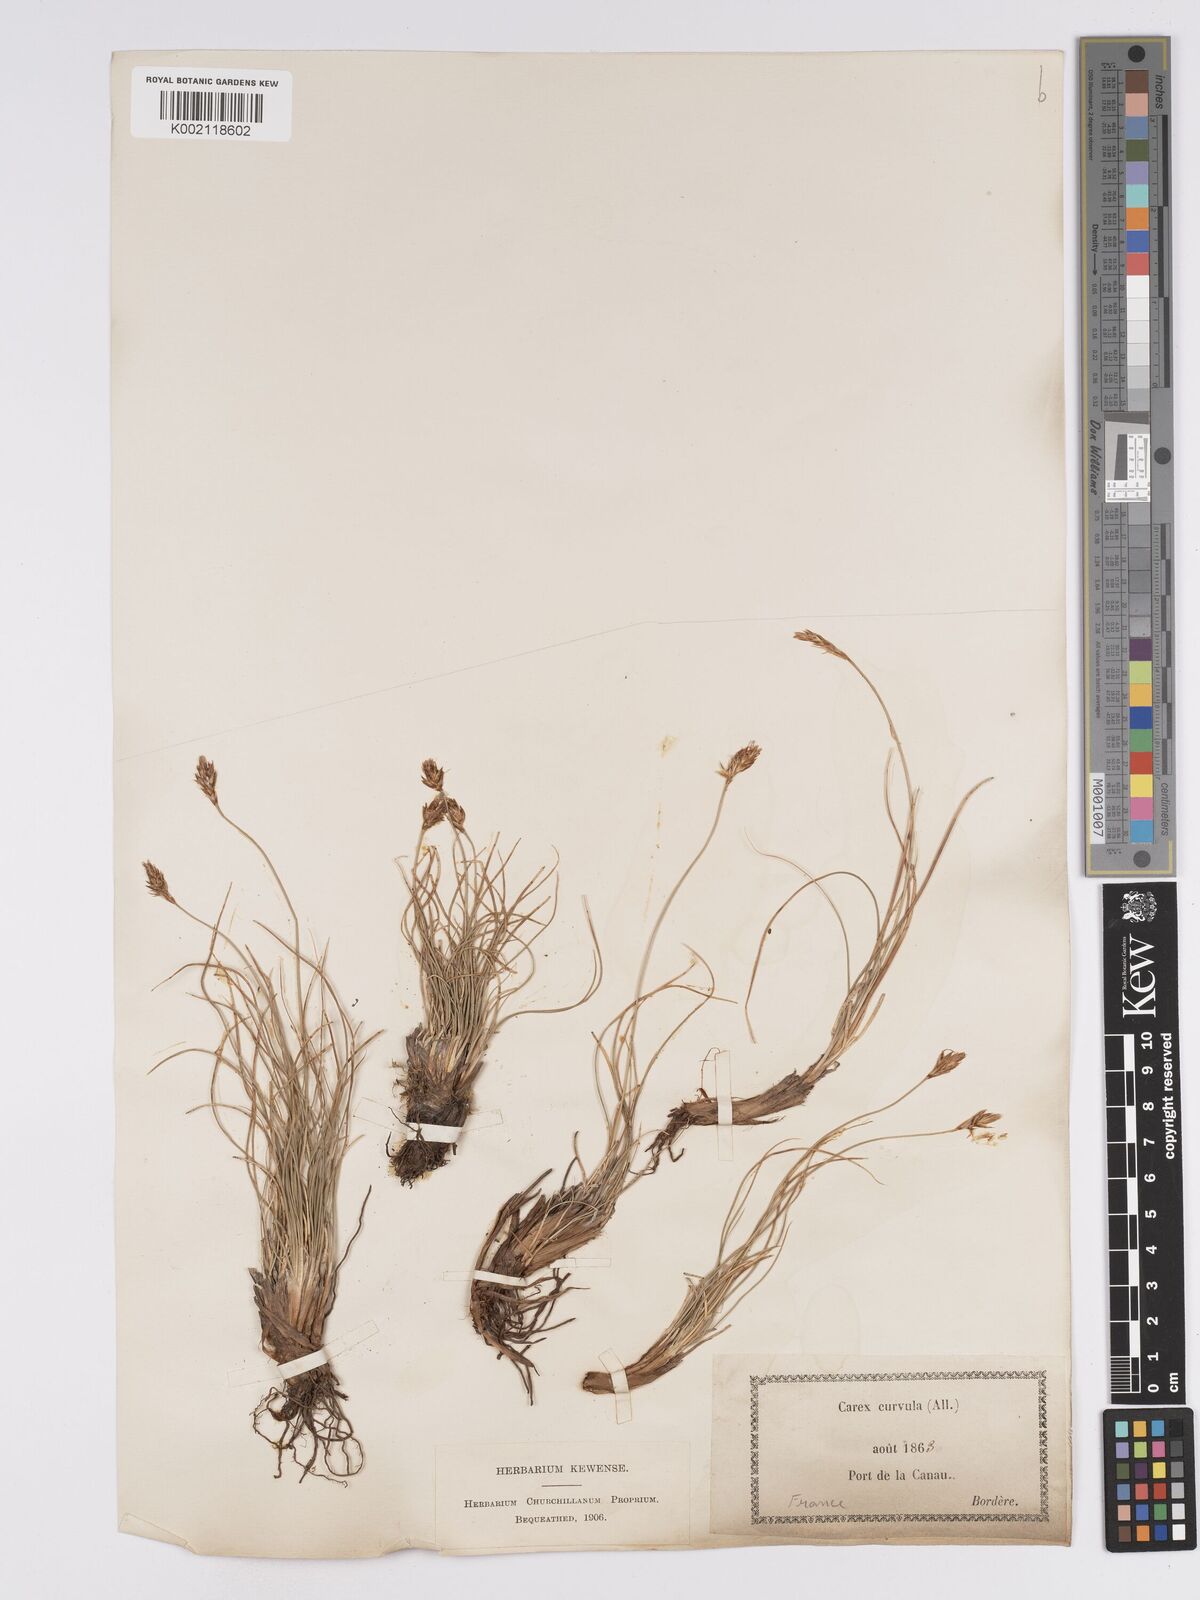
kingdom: Plantae
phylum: Tracheophyta
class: Liliopsida
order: Poales
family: Cyperaceae
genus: Carex
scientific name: Carex curvula
